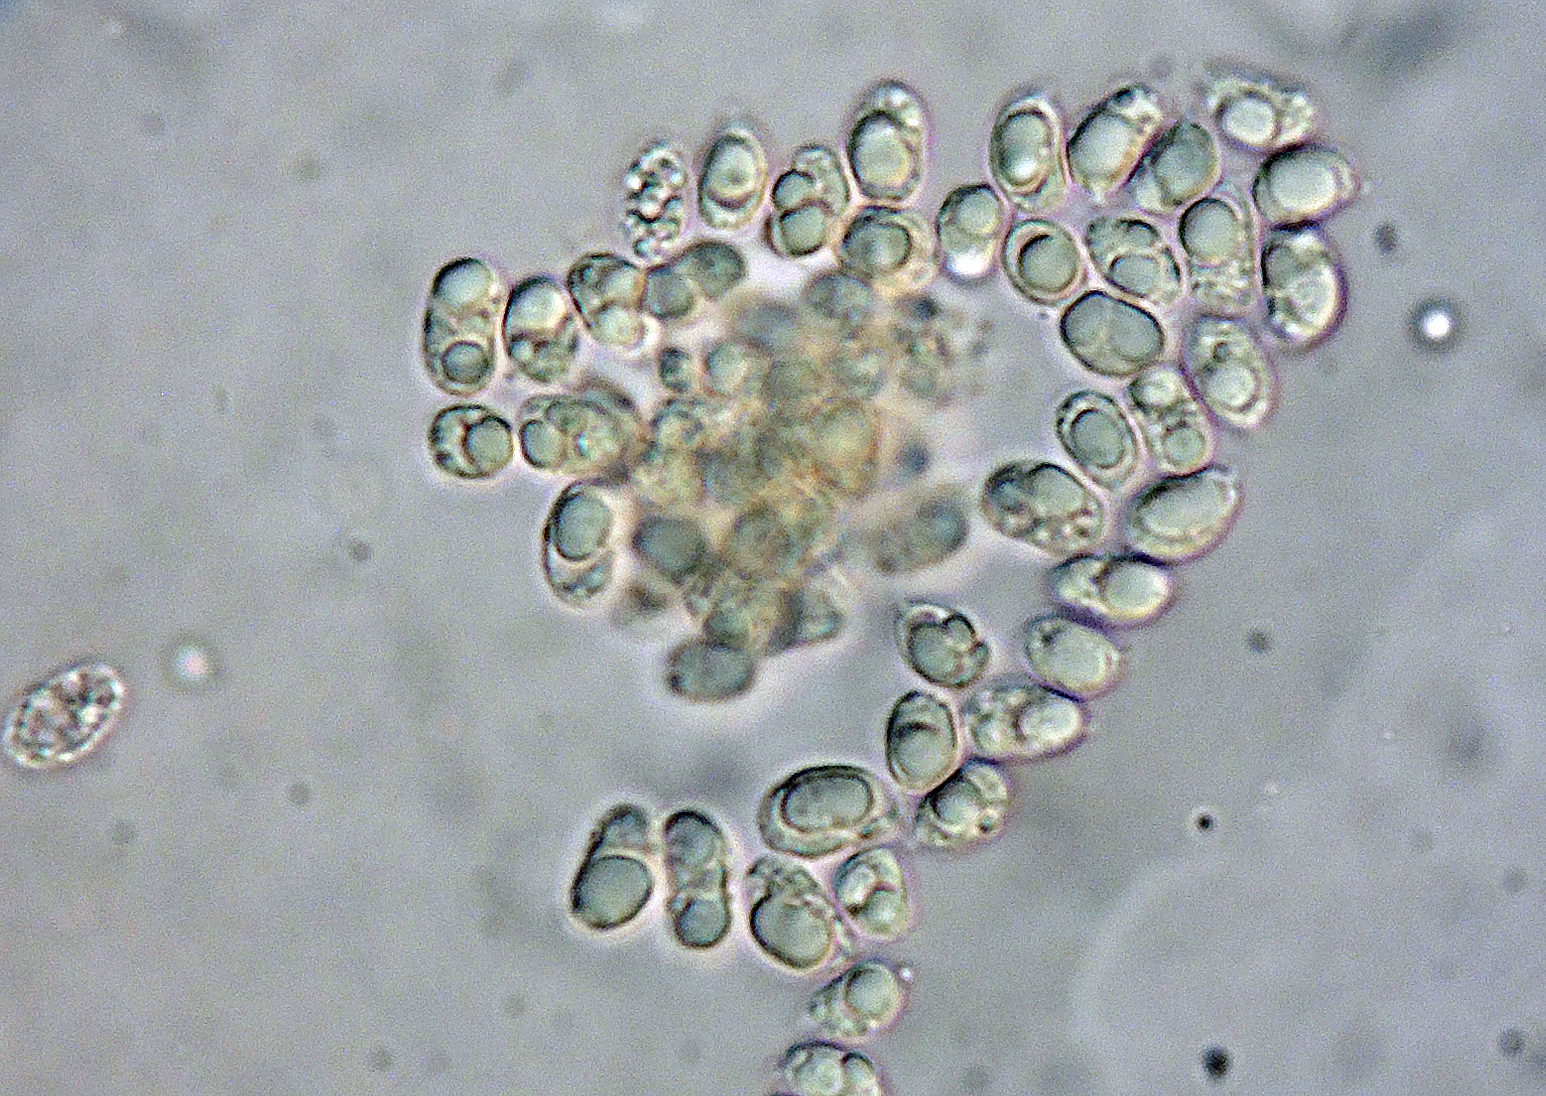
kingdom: Fungi
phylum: Basidiomycota
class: Agaricomycetes
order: Cantharellales
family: Tulasnellaceae
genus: Tulasnella
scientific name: Tulasnella pruinosa
